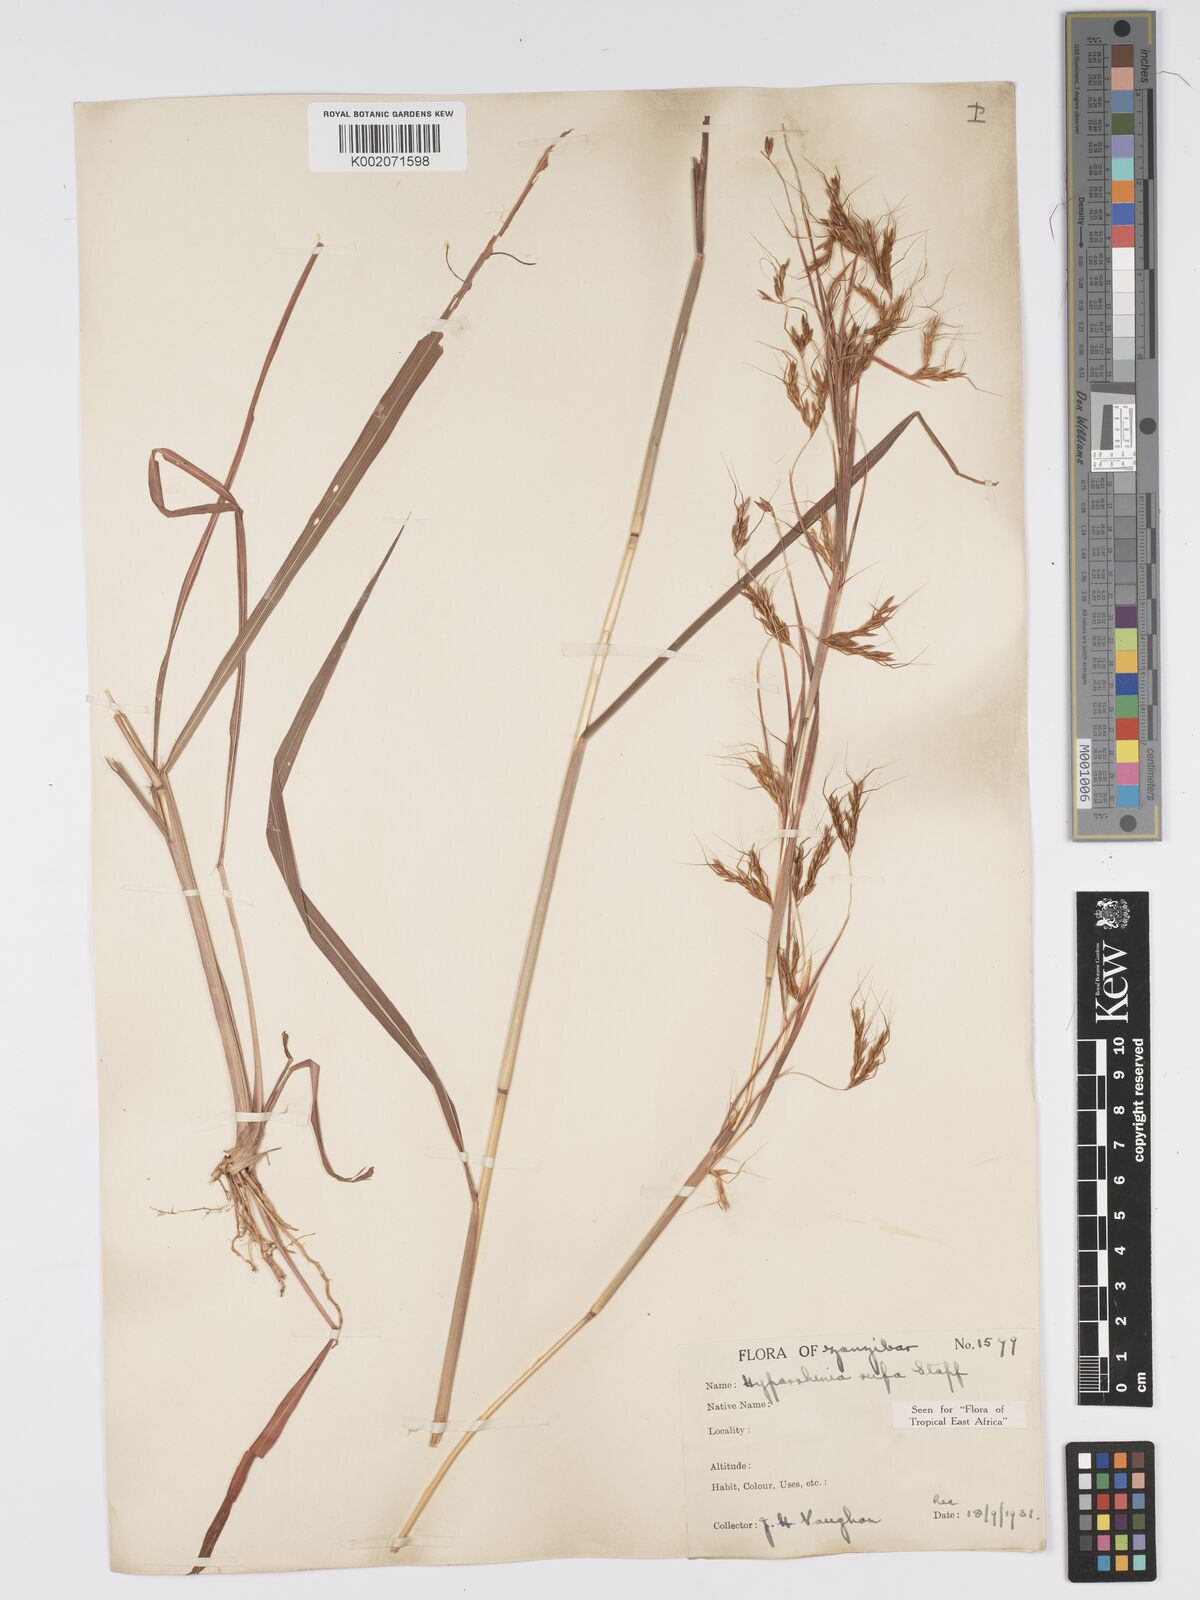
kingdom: Plantae
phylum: Tracheophyta
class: Liliopsida
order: Poales
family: Poaceae
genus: Hyparrhenia
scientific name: Hyparrhenia rufa
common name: Jaraguagrass
